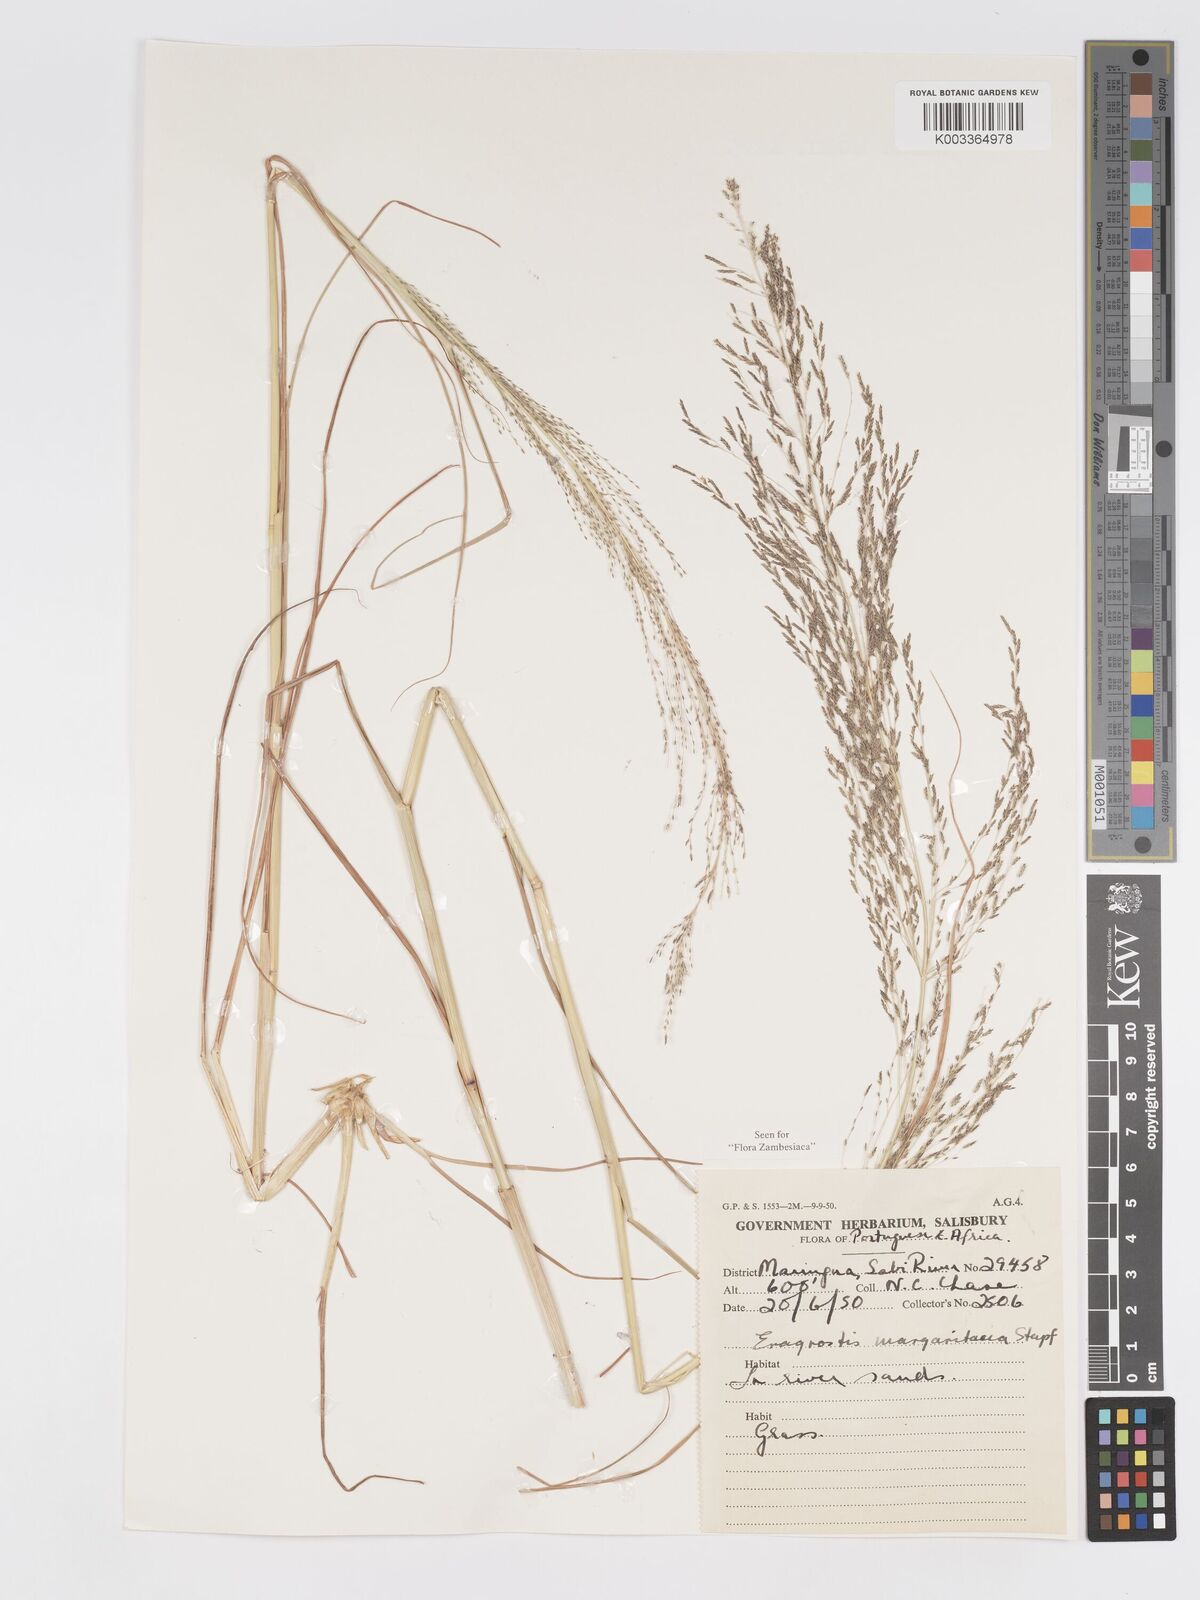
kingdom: Plantae
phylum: Tracheophyta
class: Liliopsida
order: Poales
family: Poaceae
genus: Eragrostis
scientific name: Eragrostis rotifer
